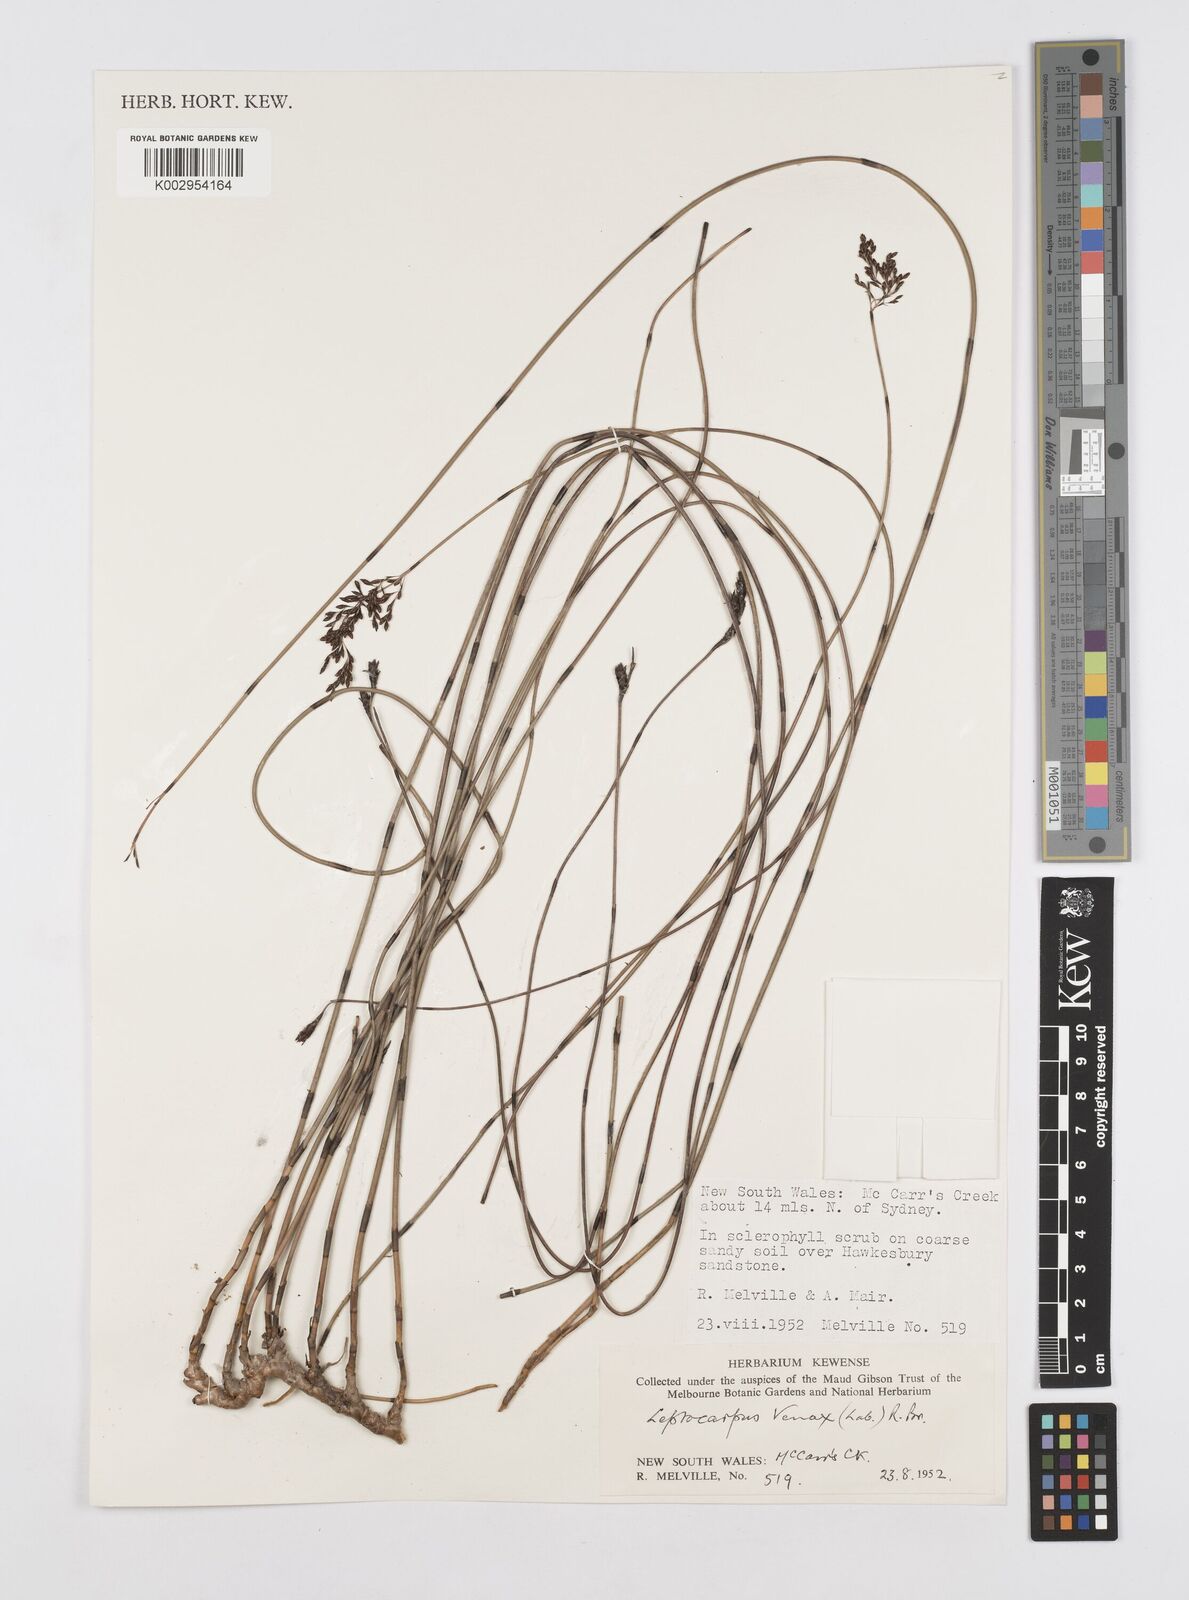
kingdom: Plantae
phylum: Tracheophyta
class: Liliopsida
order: Poales
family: Restionaceae
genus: Leptocarpus
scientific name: Leptocarpus tenax
